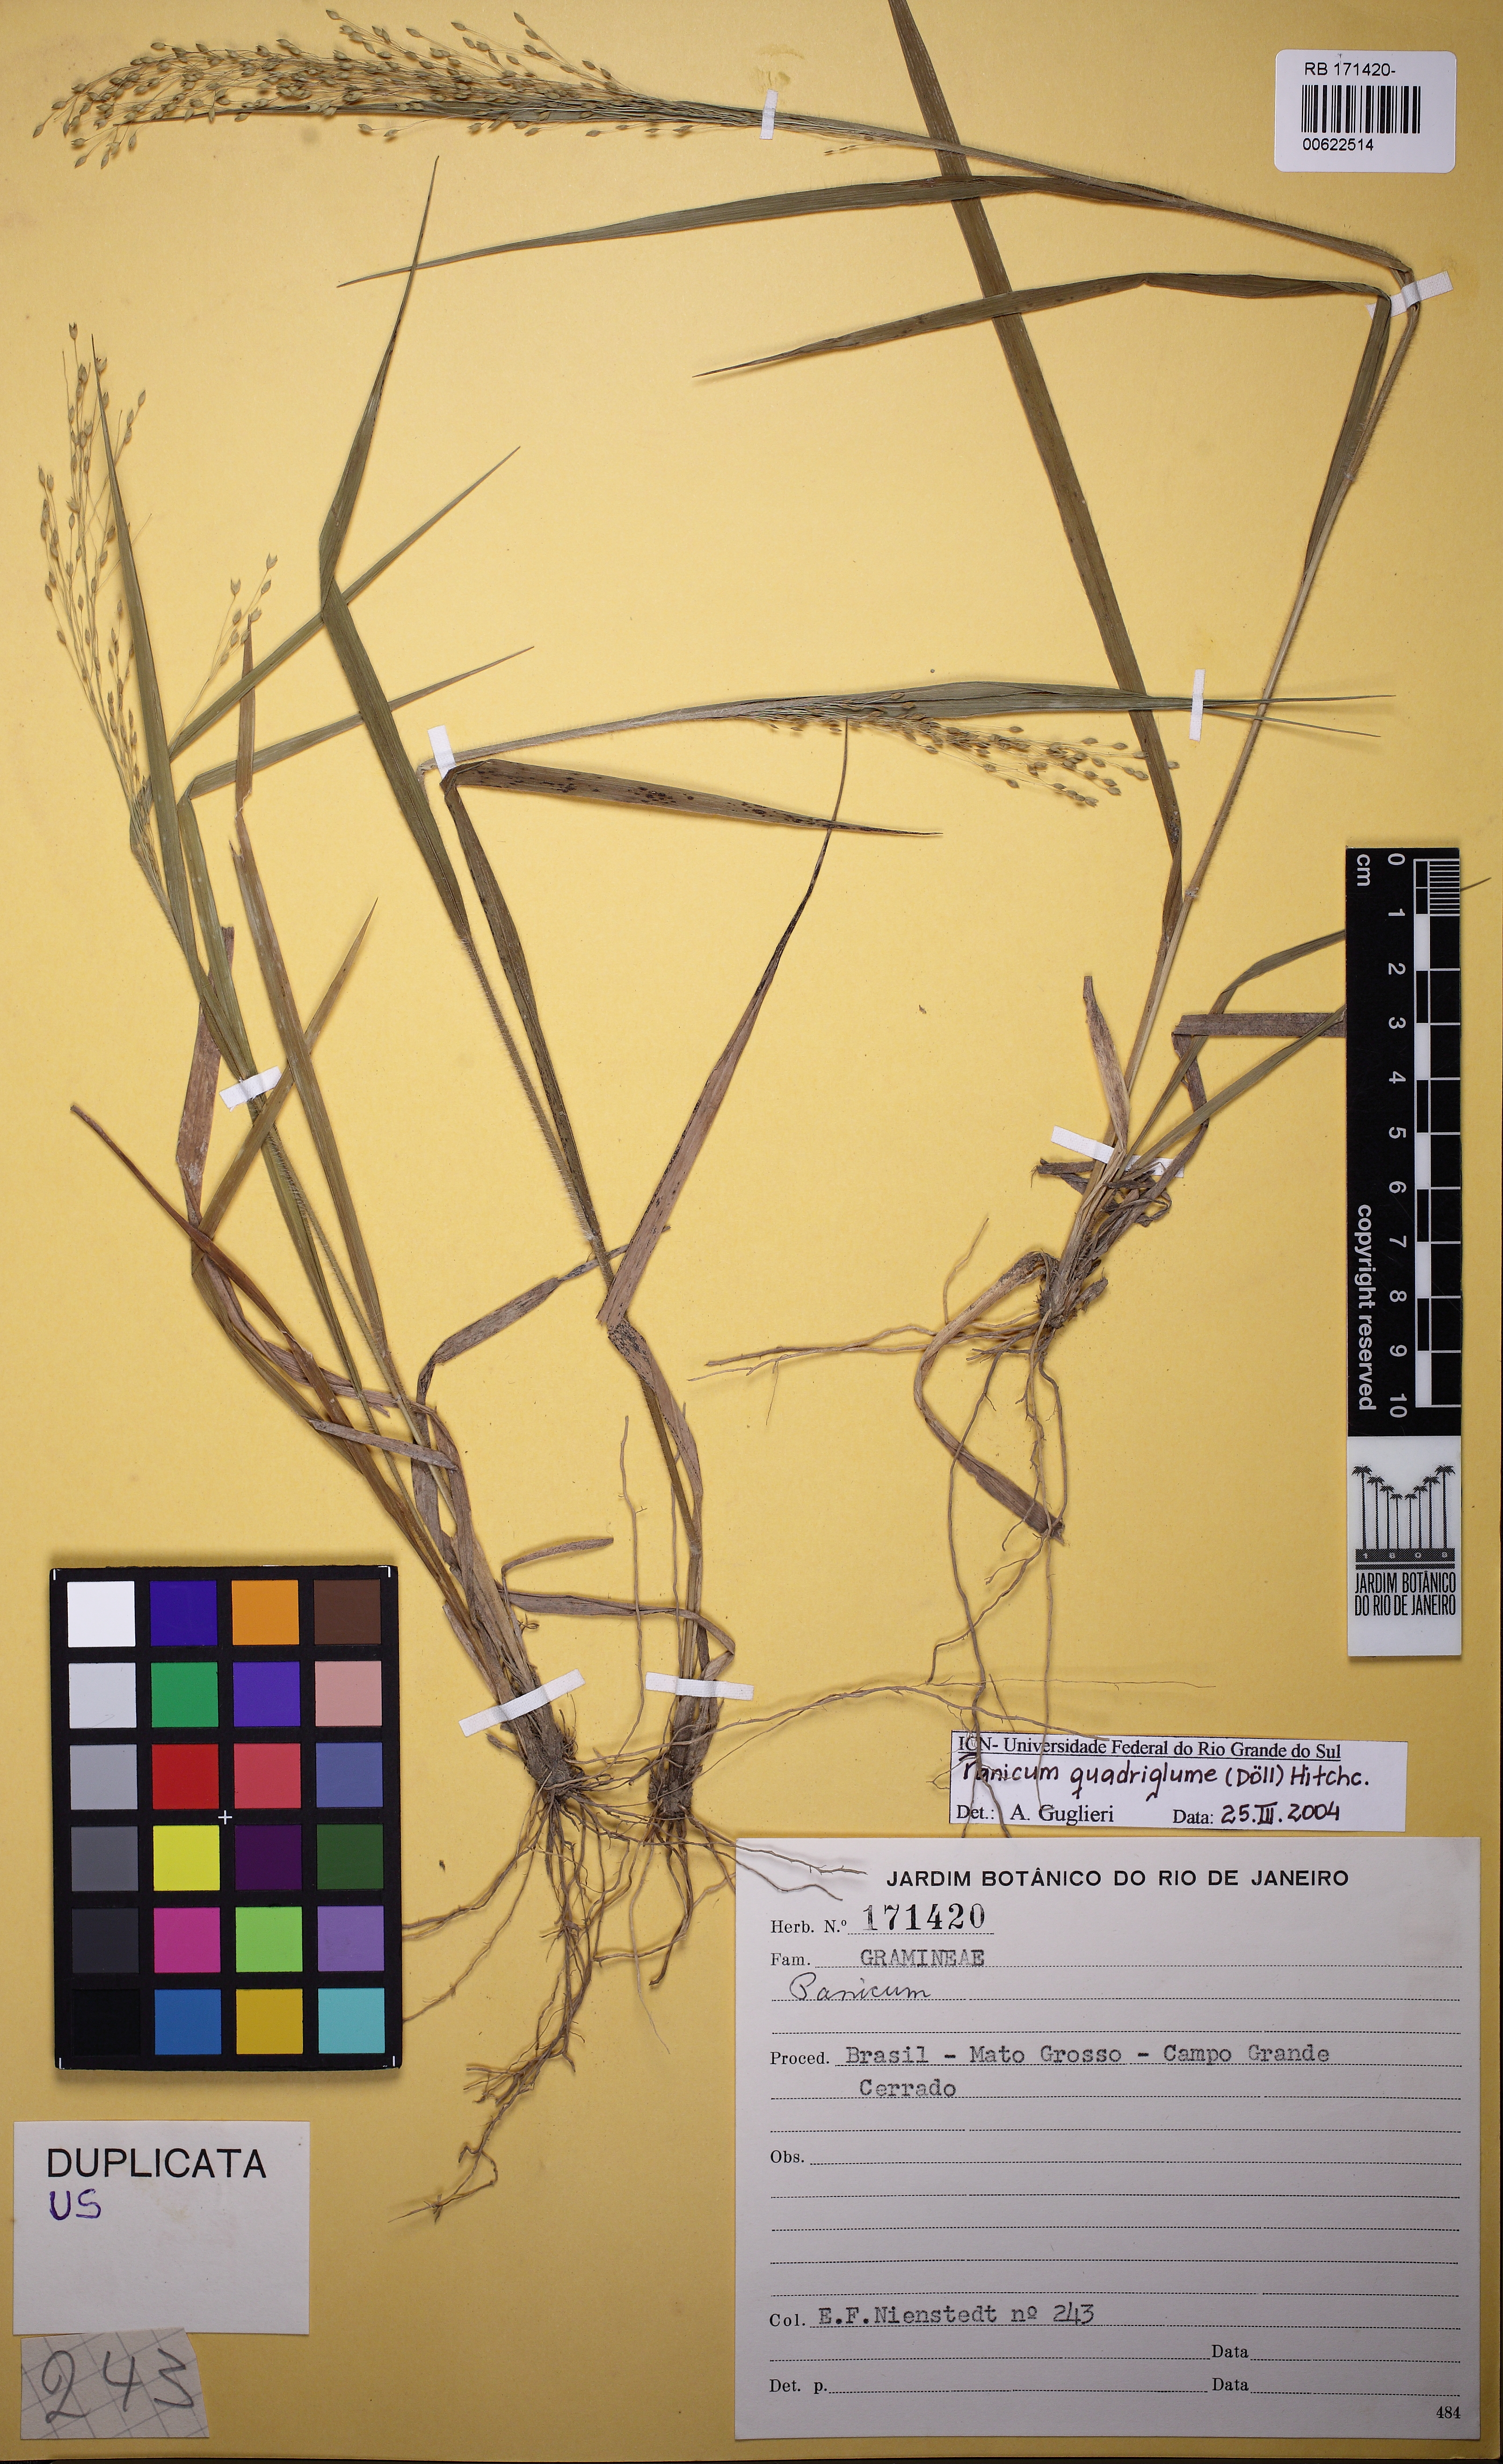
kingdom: Plantae
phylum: Tracheophyta
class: Liliopsida
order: Poales
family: Poaceae
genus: Panicum
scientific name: Panicum quadriglume
